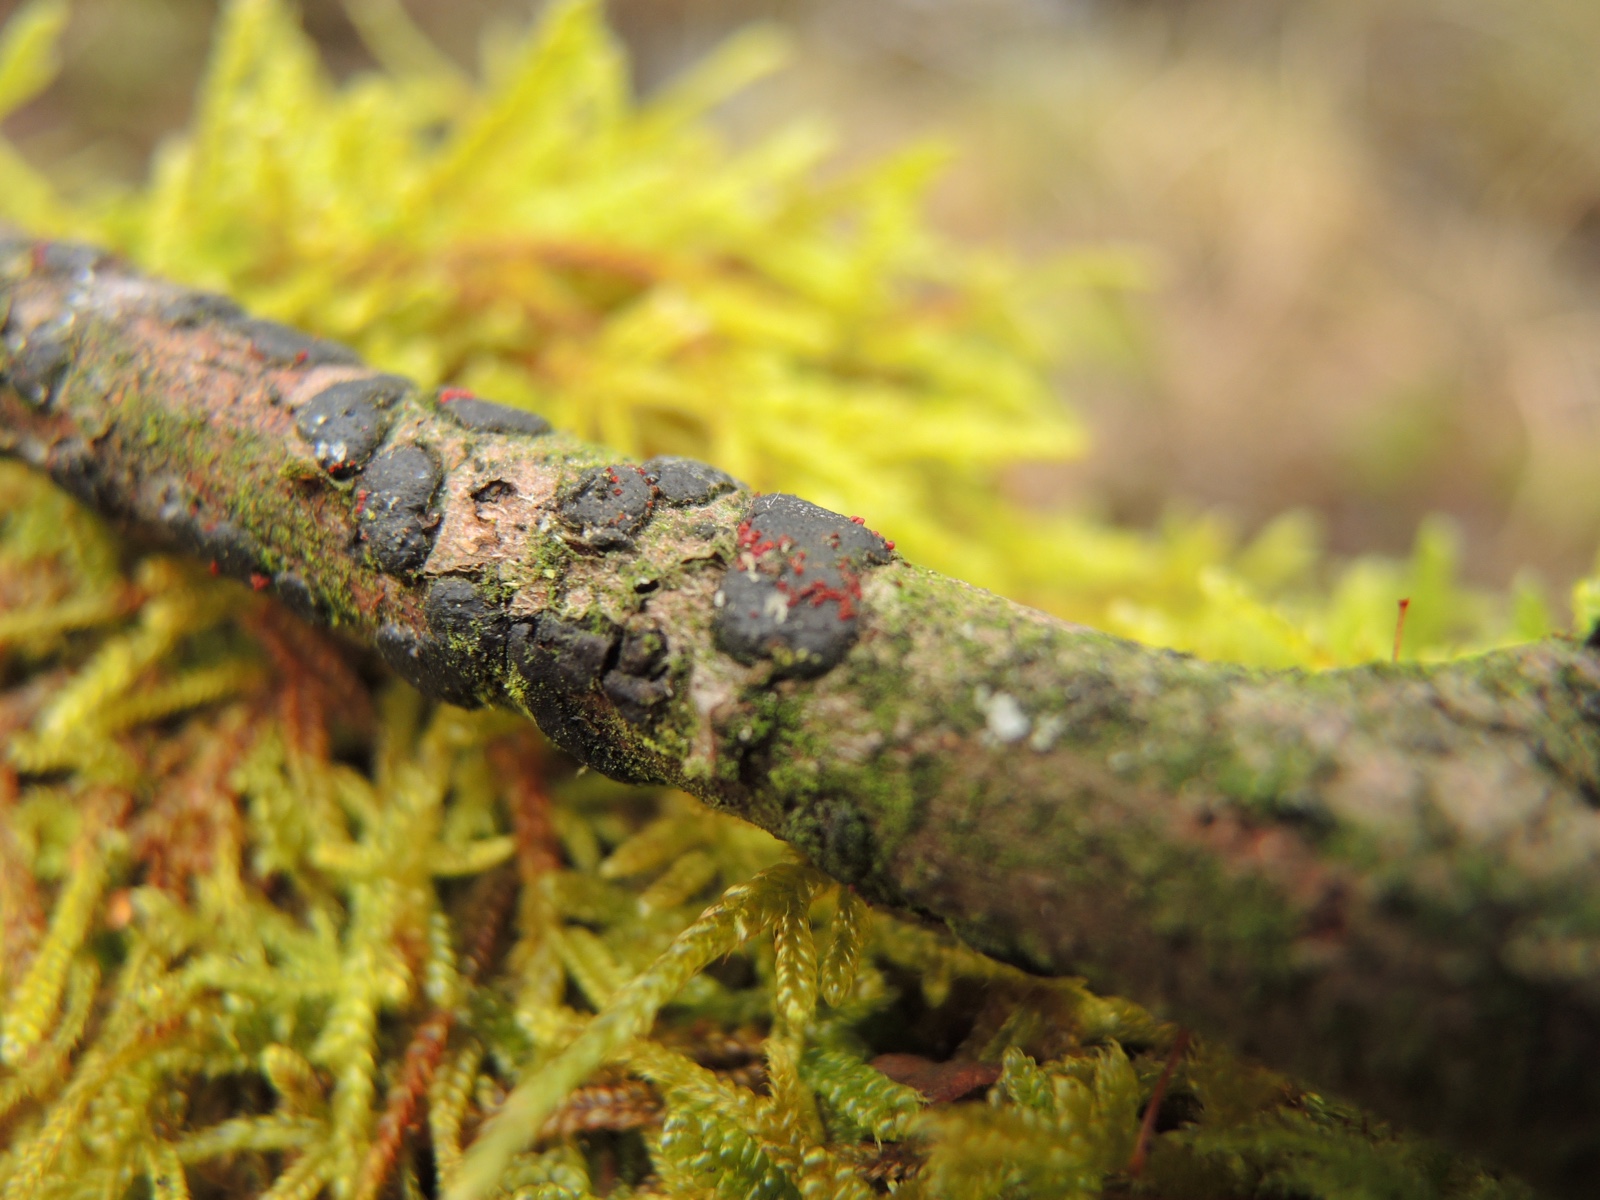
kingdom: Fungi
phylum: Ascomycota
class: Sordariomycetes
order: Hypocreales
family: Nectriaceae
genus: Dialonectria
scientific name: Dialonectria diatrypicola
